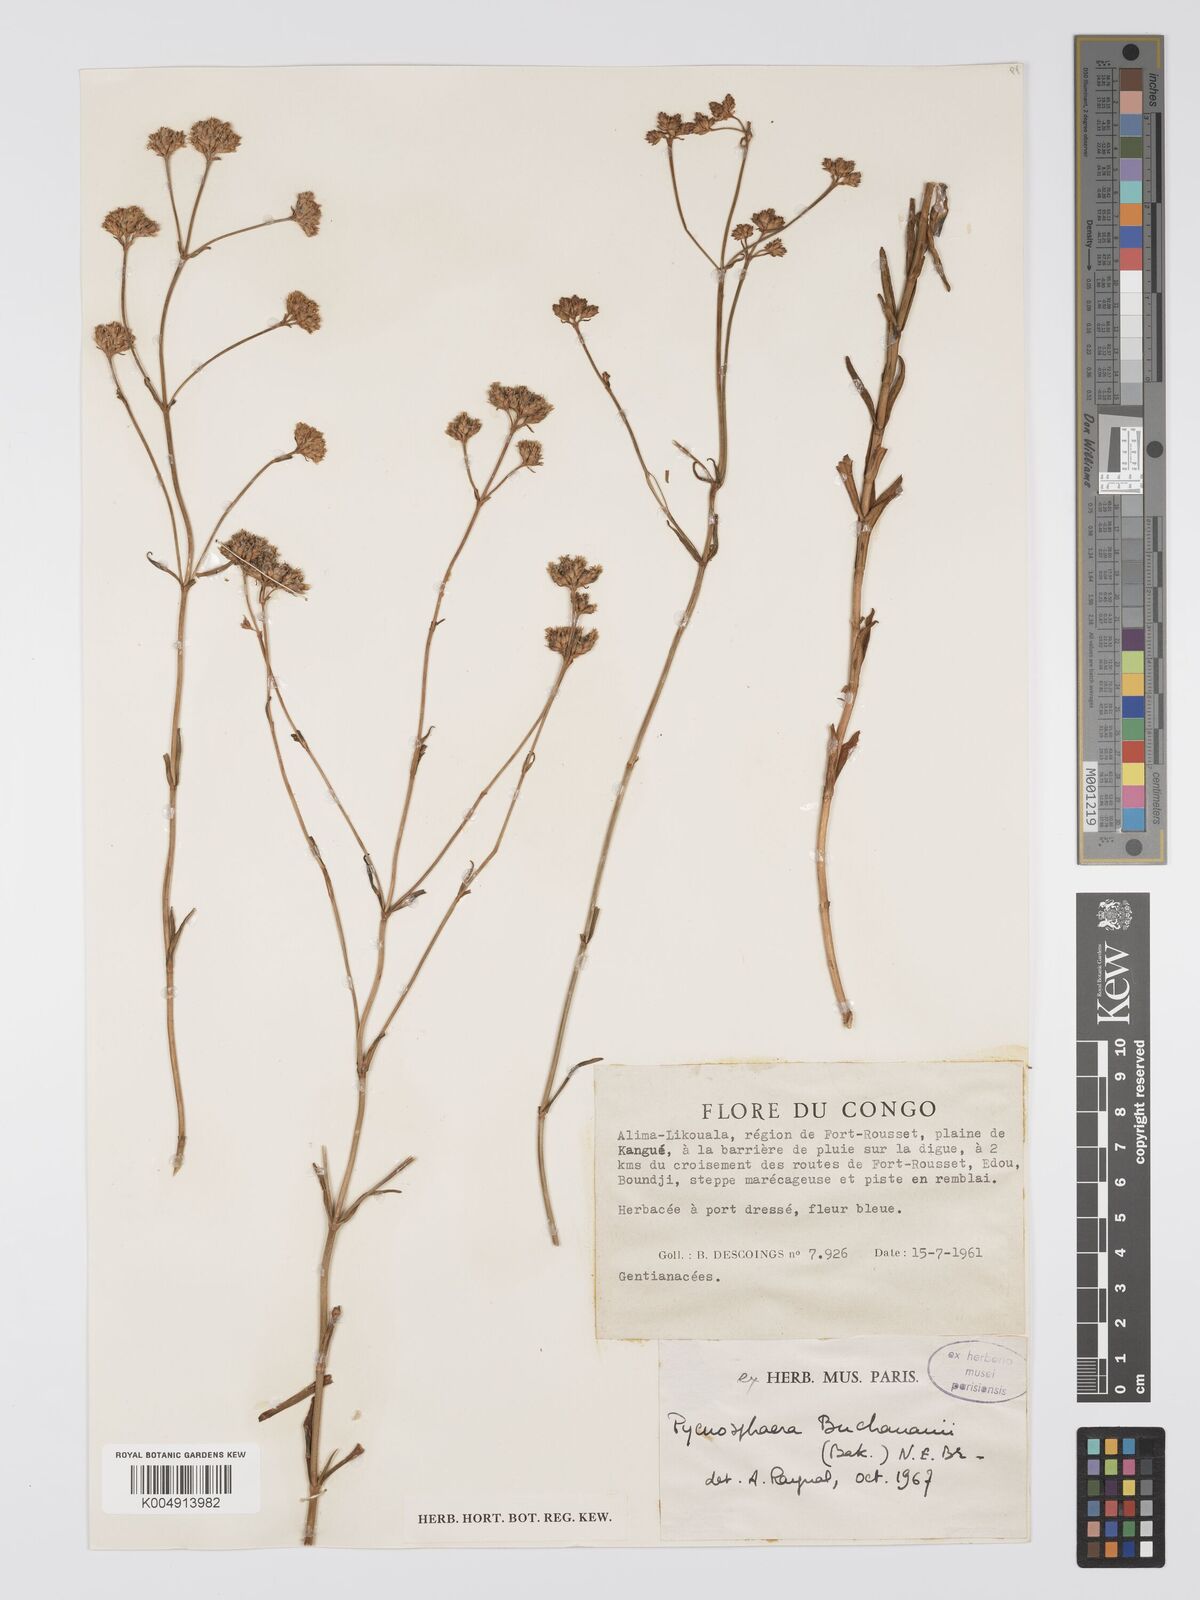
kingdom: Plantae
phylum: Tracheophyta
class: Magnoliopsida
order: Gentianales
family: Gentianaceae
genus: Pycnosphaera
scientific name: Pycnosphaera buchananii
